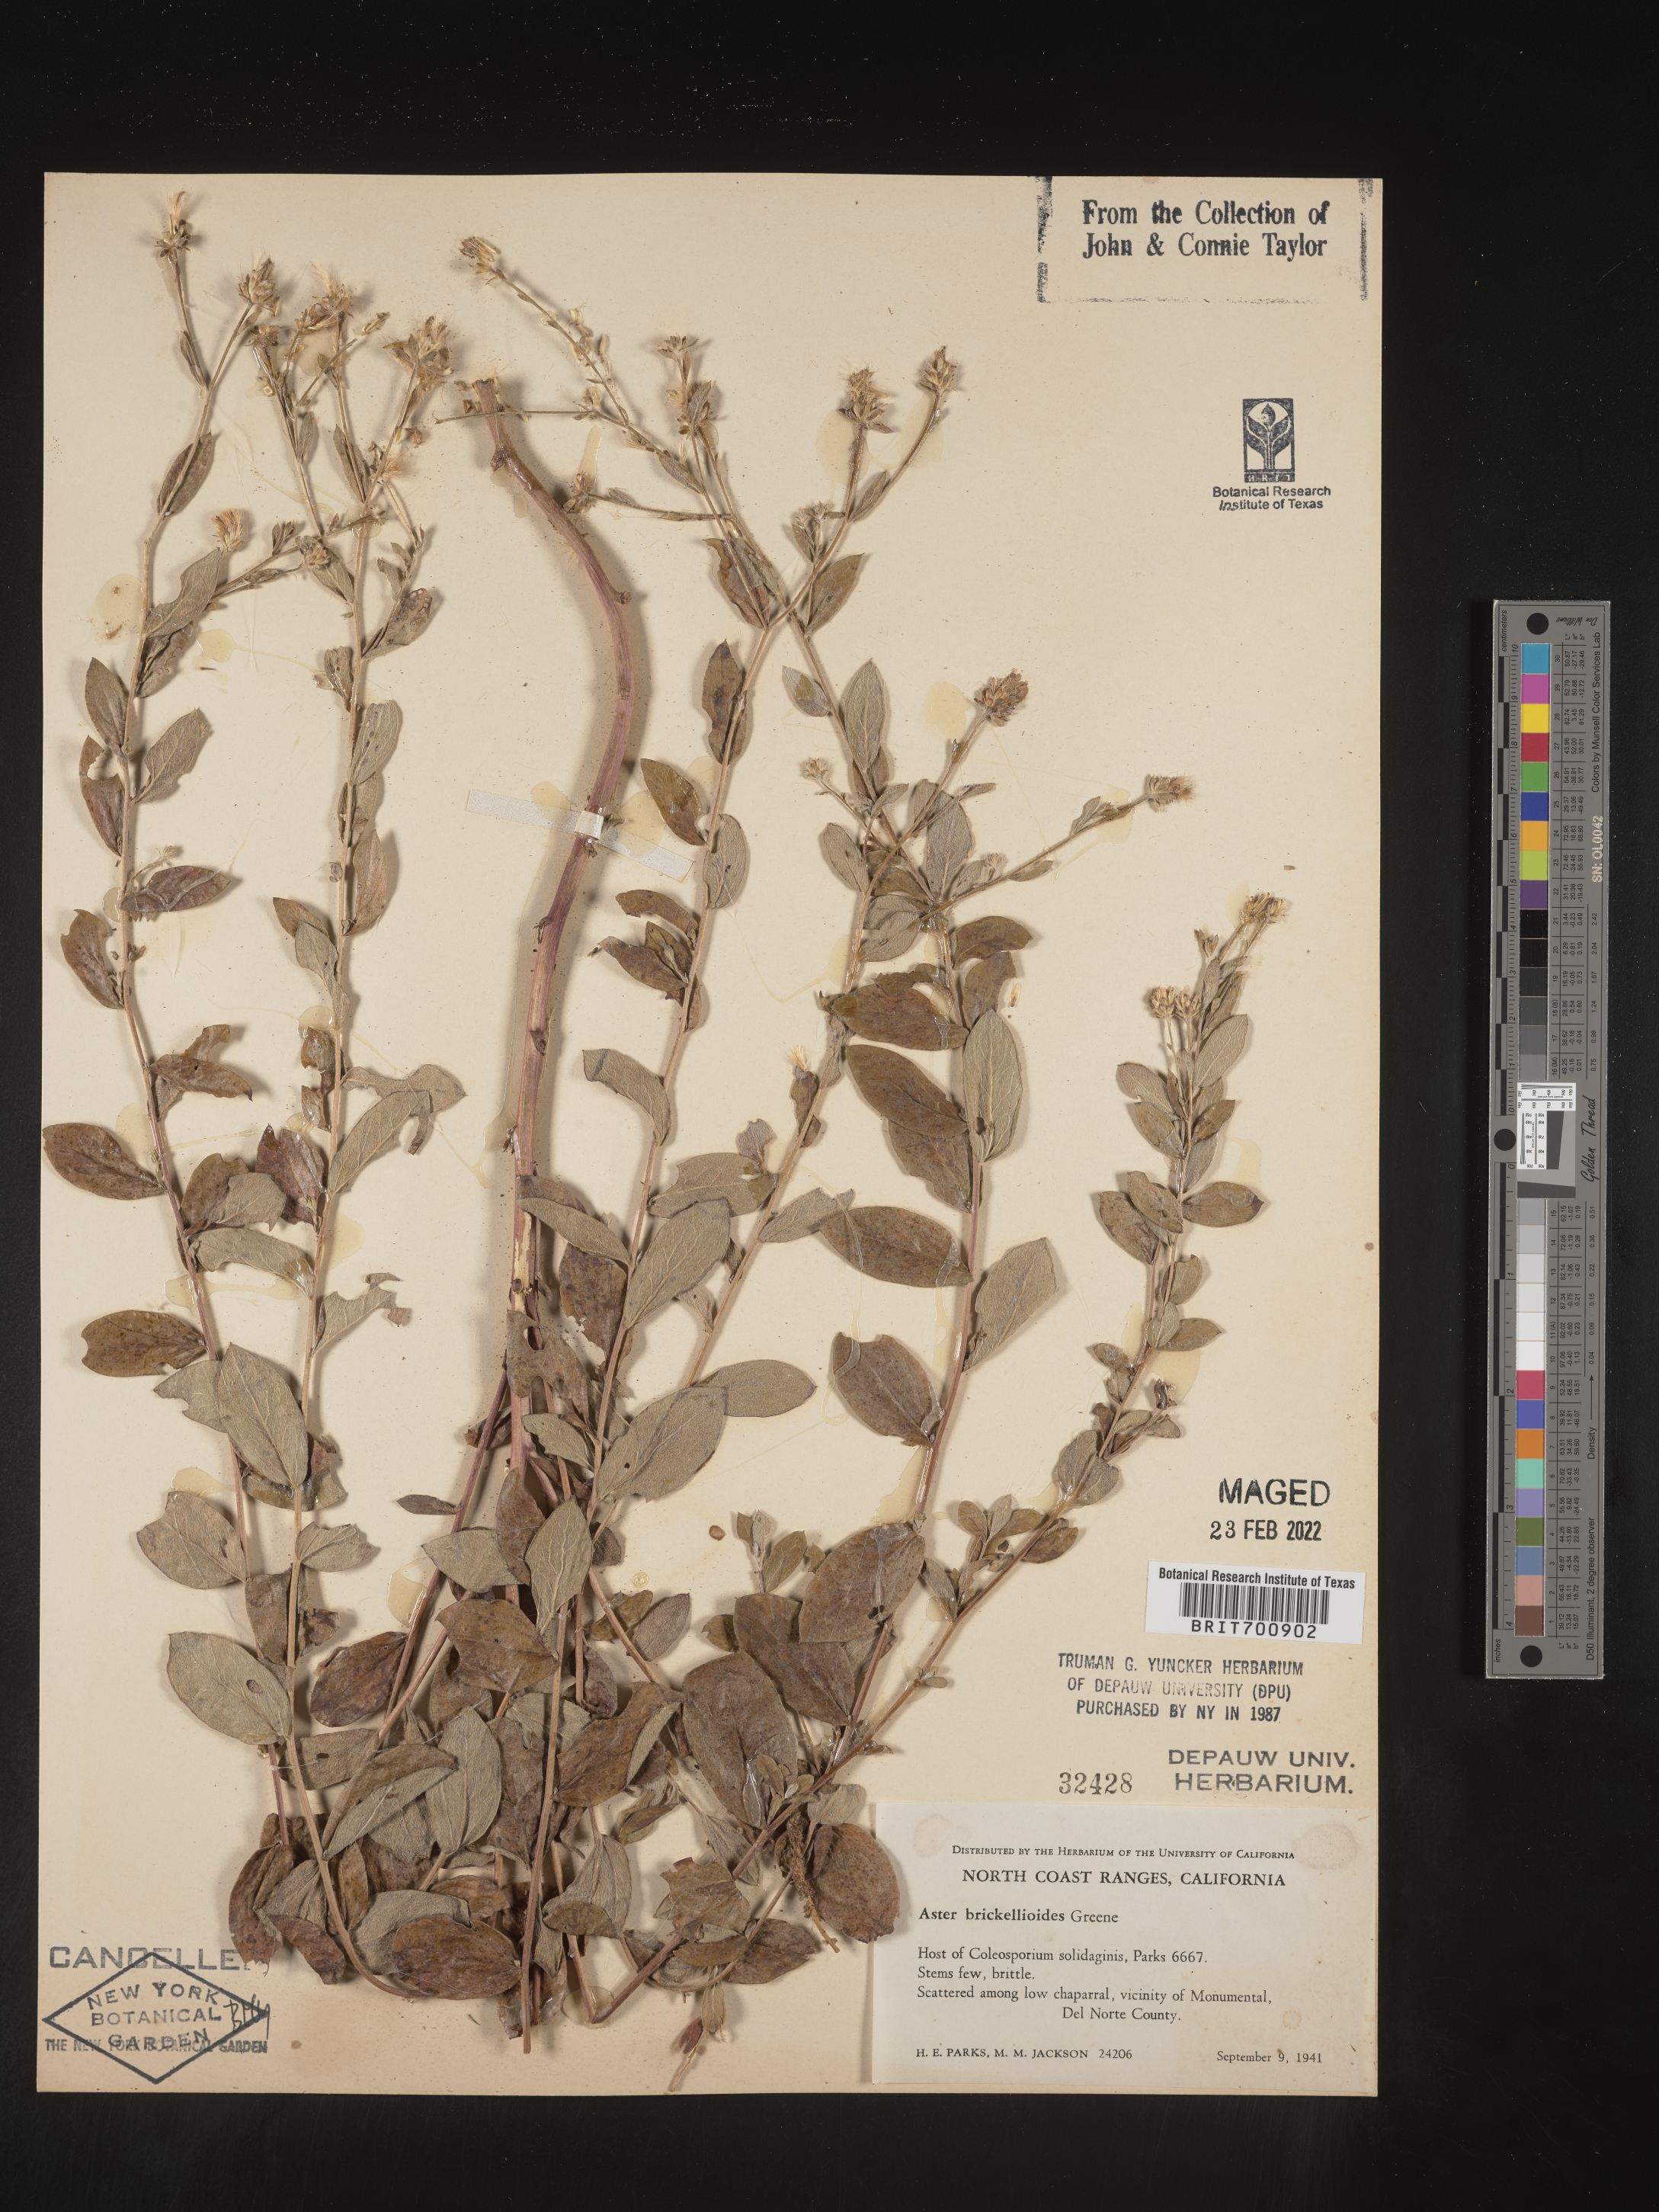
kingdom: Plantae
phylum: Tracheophyta
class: Magnoliopsida
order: Asterales
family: Asteraceae
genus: Eucephalus
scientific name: Eucephalus tomentellus
